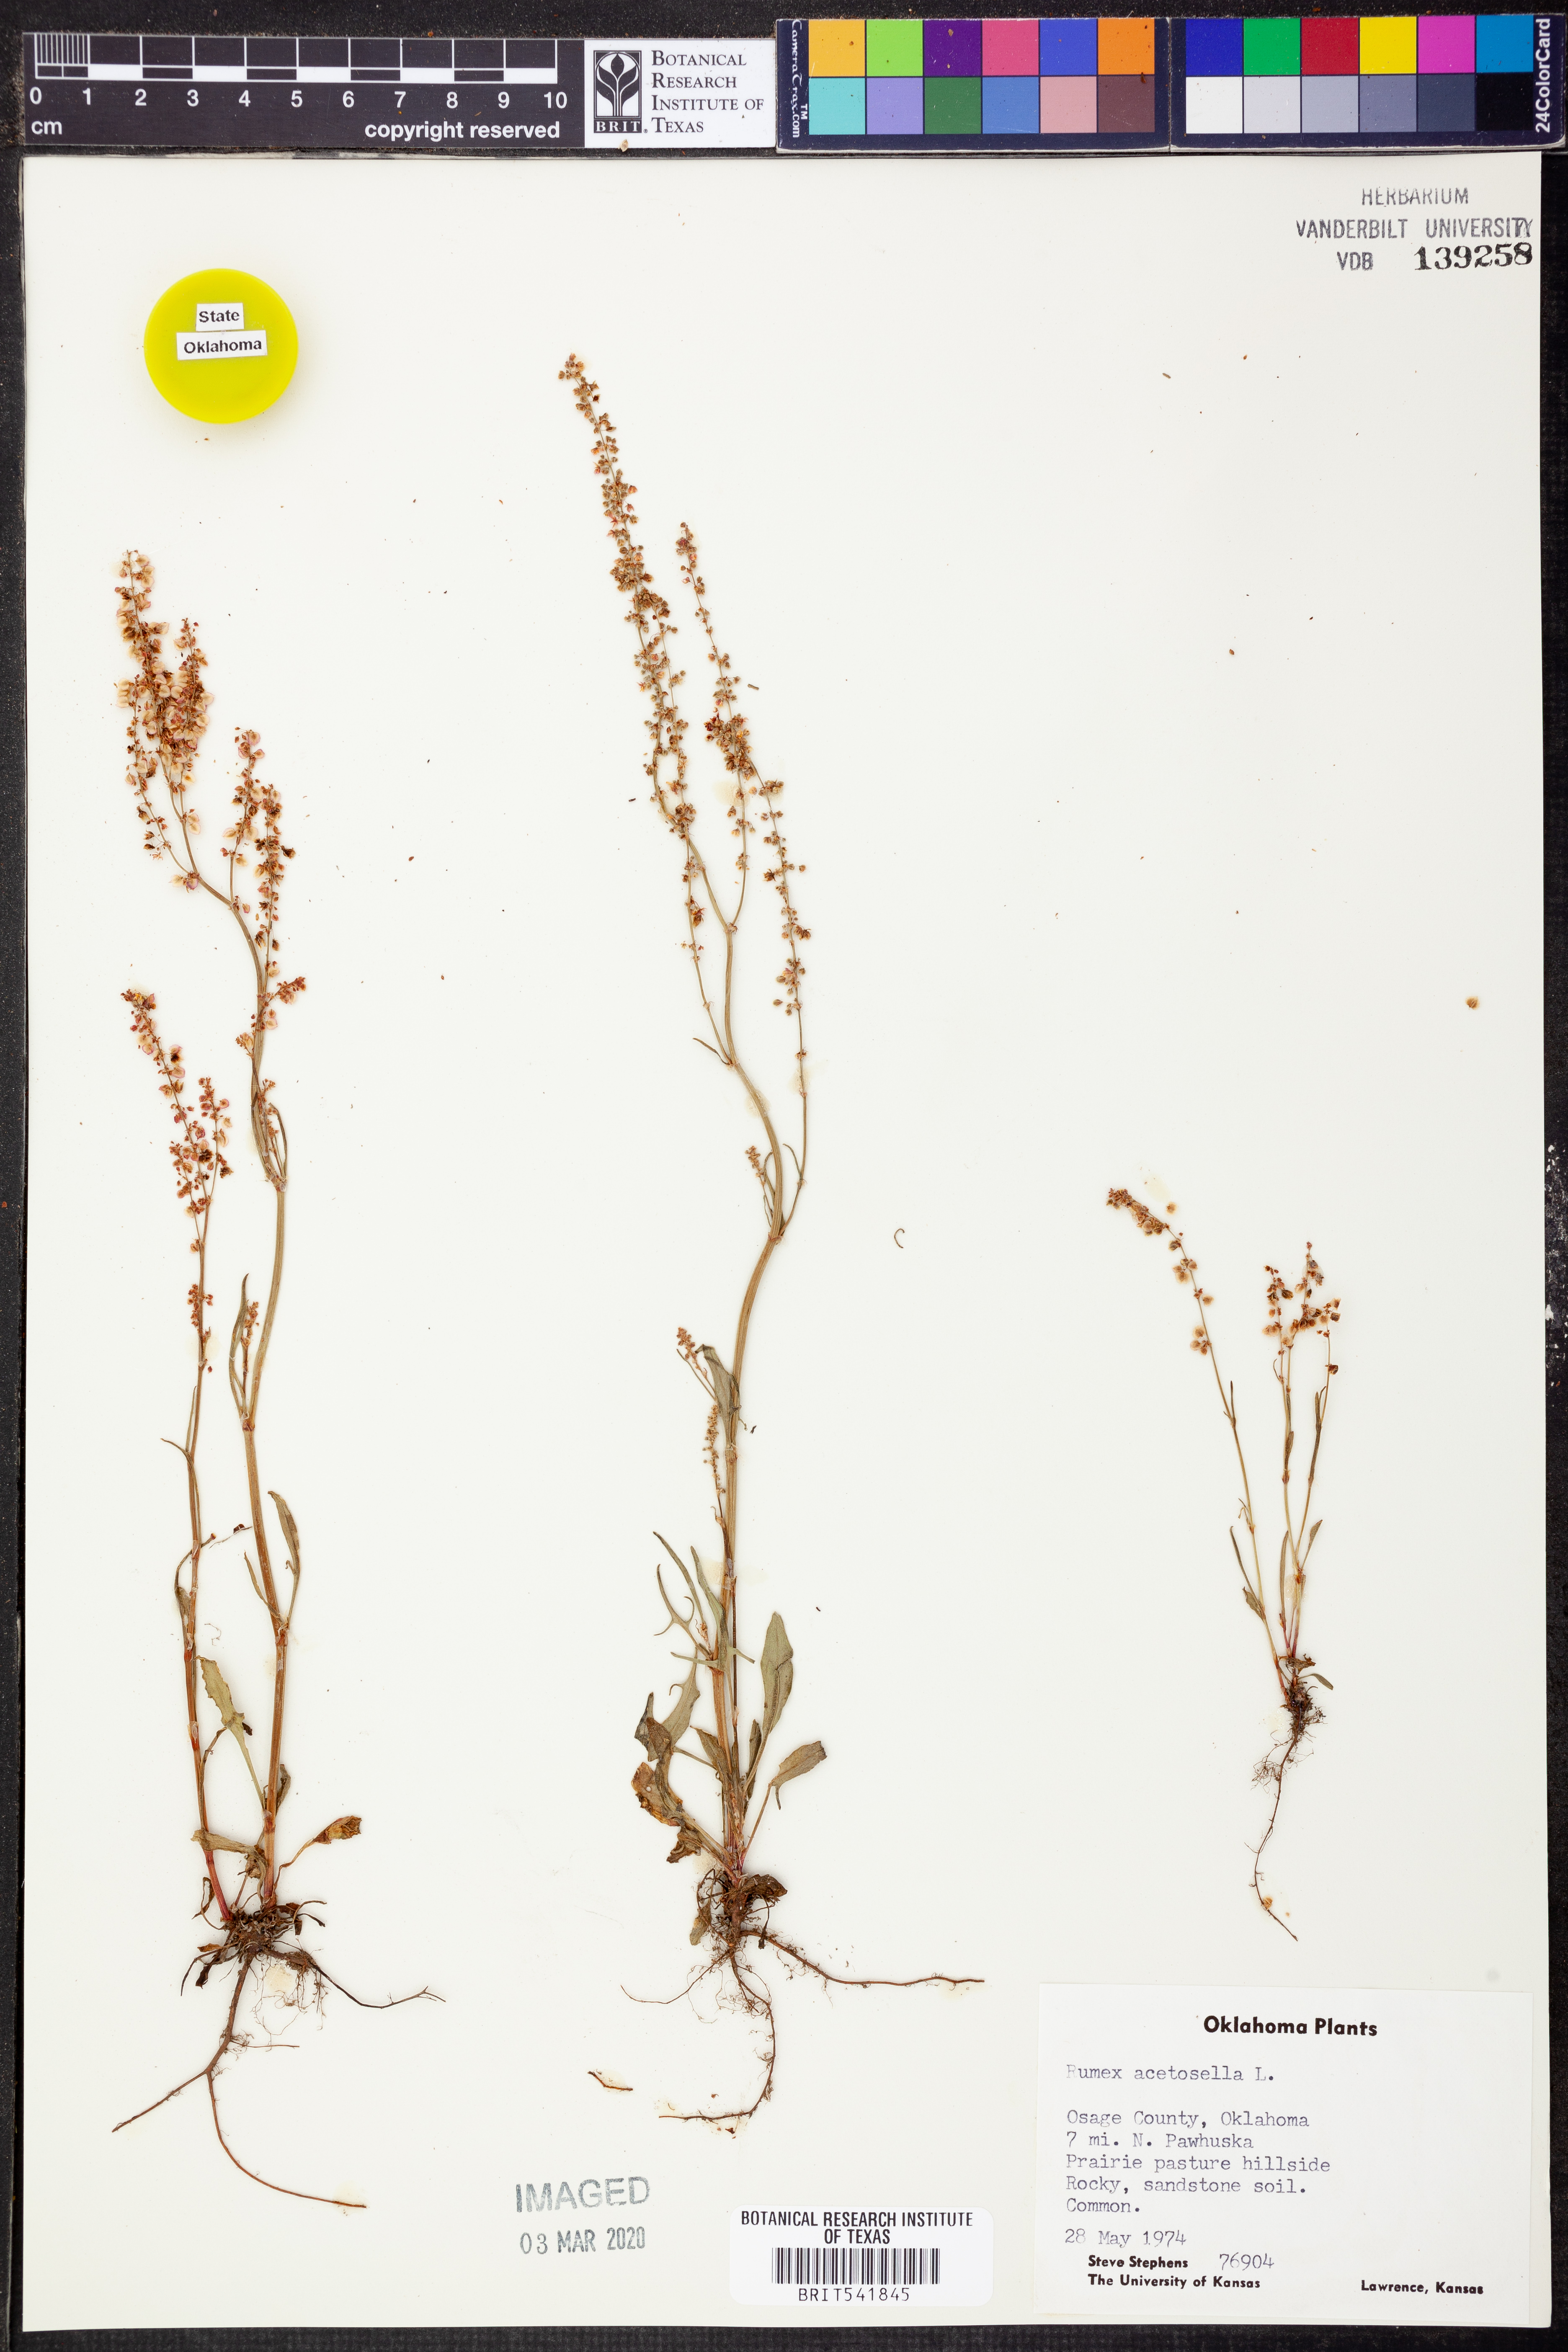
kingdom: Plantae
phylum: Tracheophyta
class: Magnoliopsida
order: Caryophyllales
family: Polygonaceae
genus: Rumex
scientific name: Rumex acetosella
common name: Common sheep sorrel
